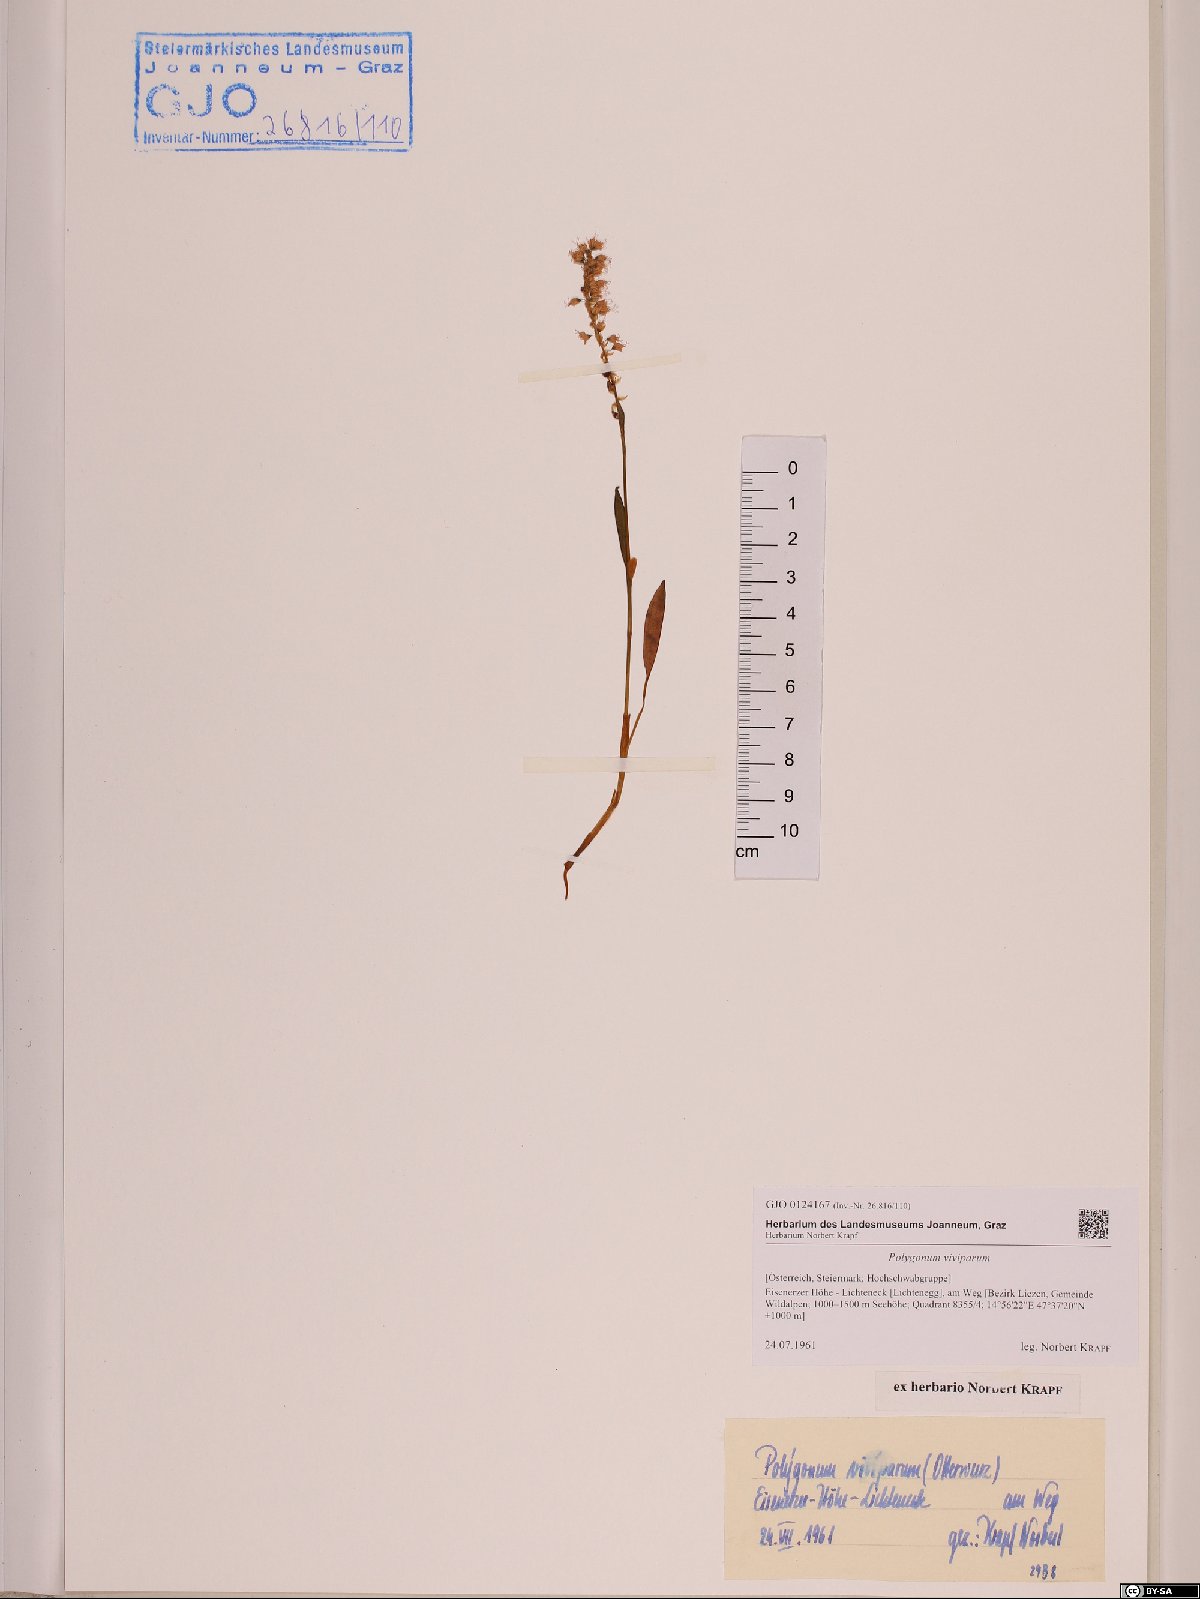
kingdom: Plantae
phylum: Tracheophyta
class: Magnoliopsida
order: Caryophyllales
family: Polygonaceae
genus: Bistorta
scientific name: Bistorta vivipara
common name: Alpine bistort
